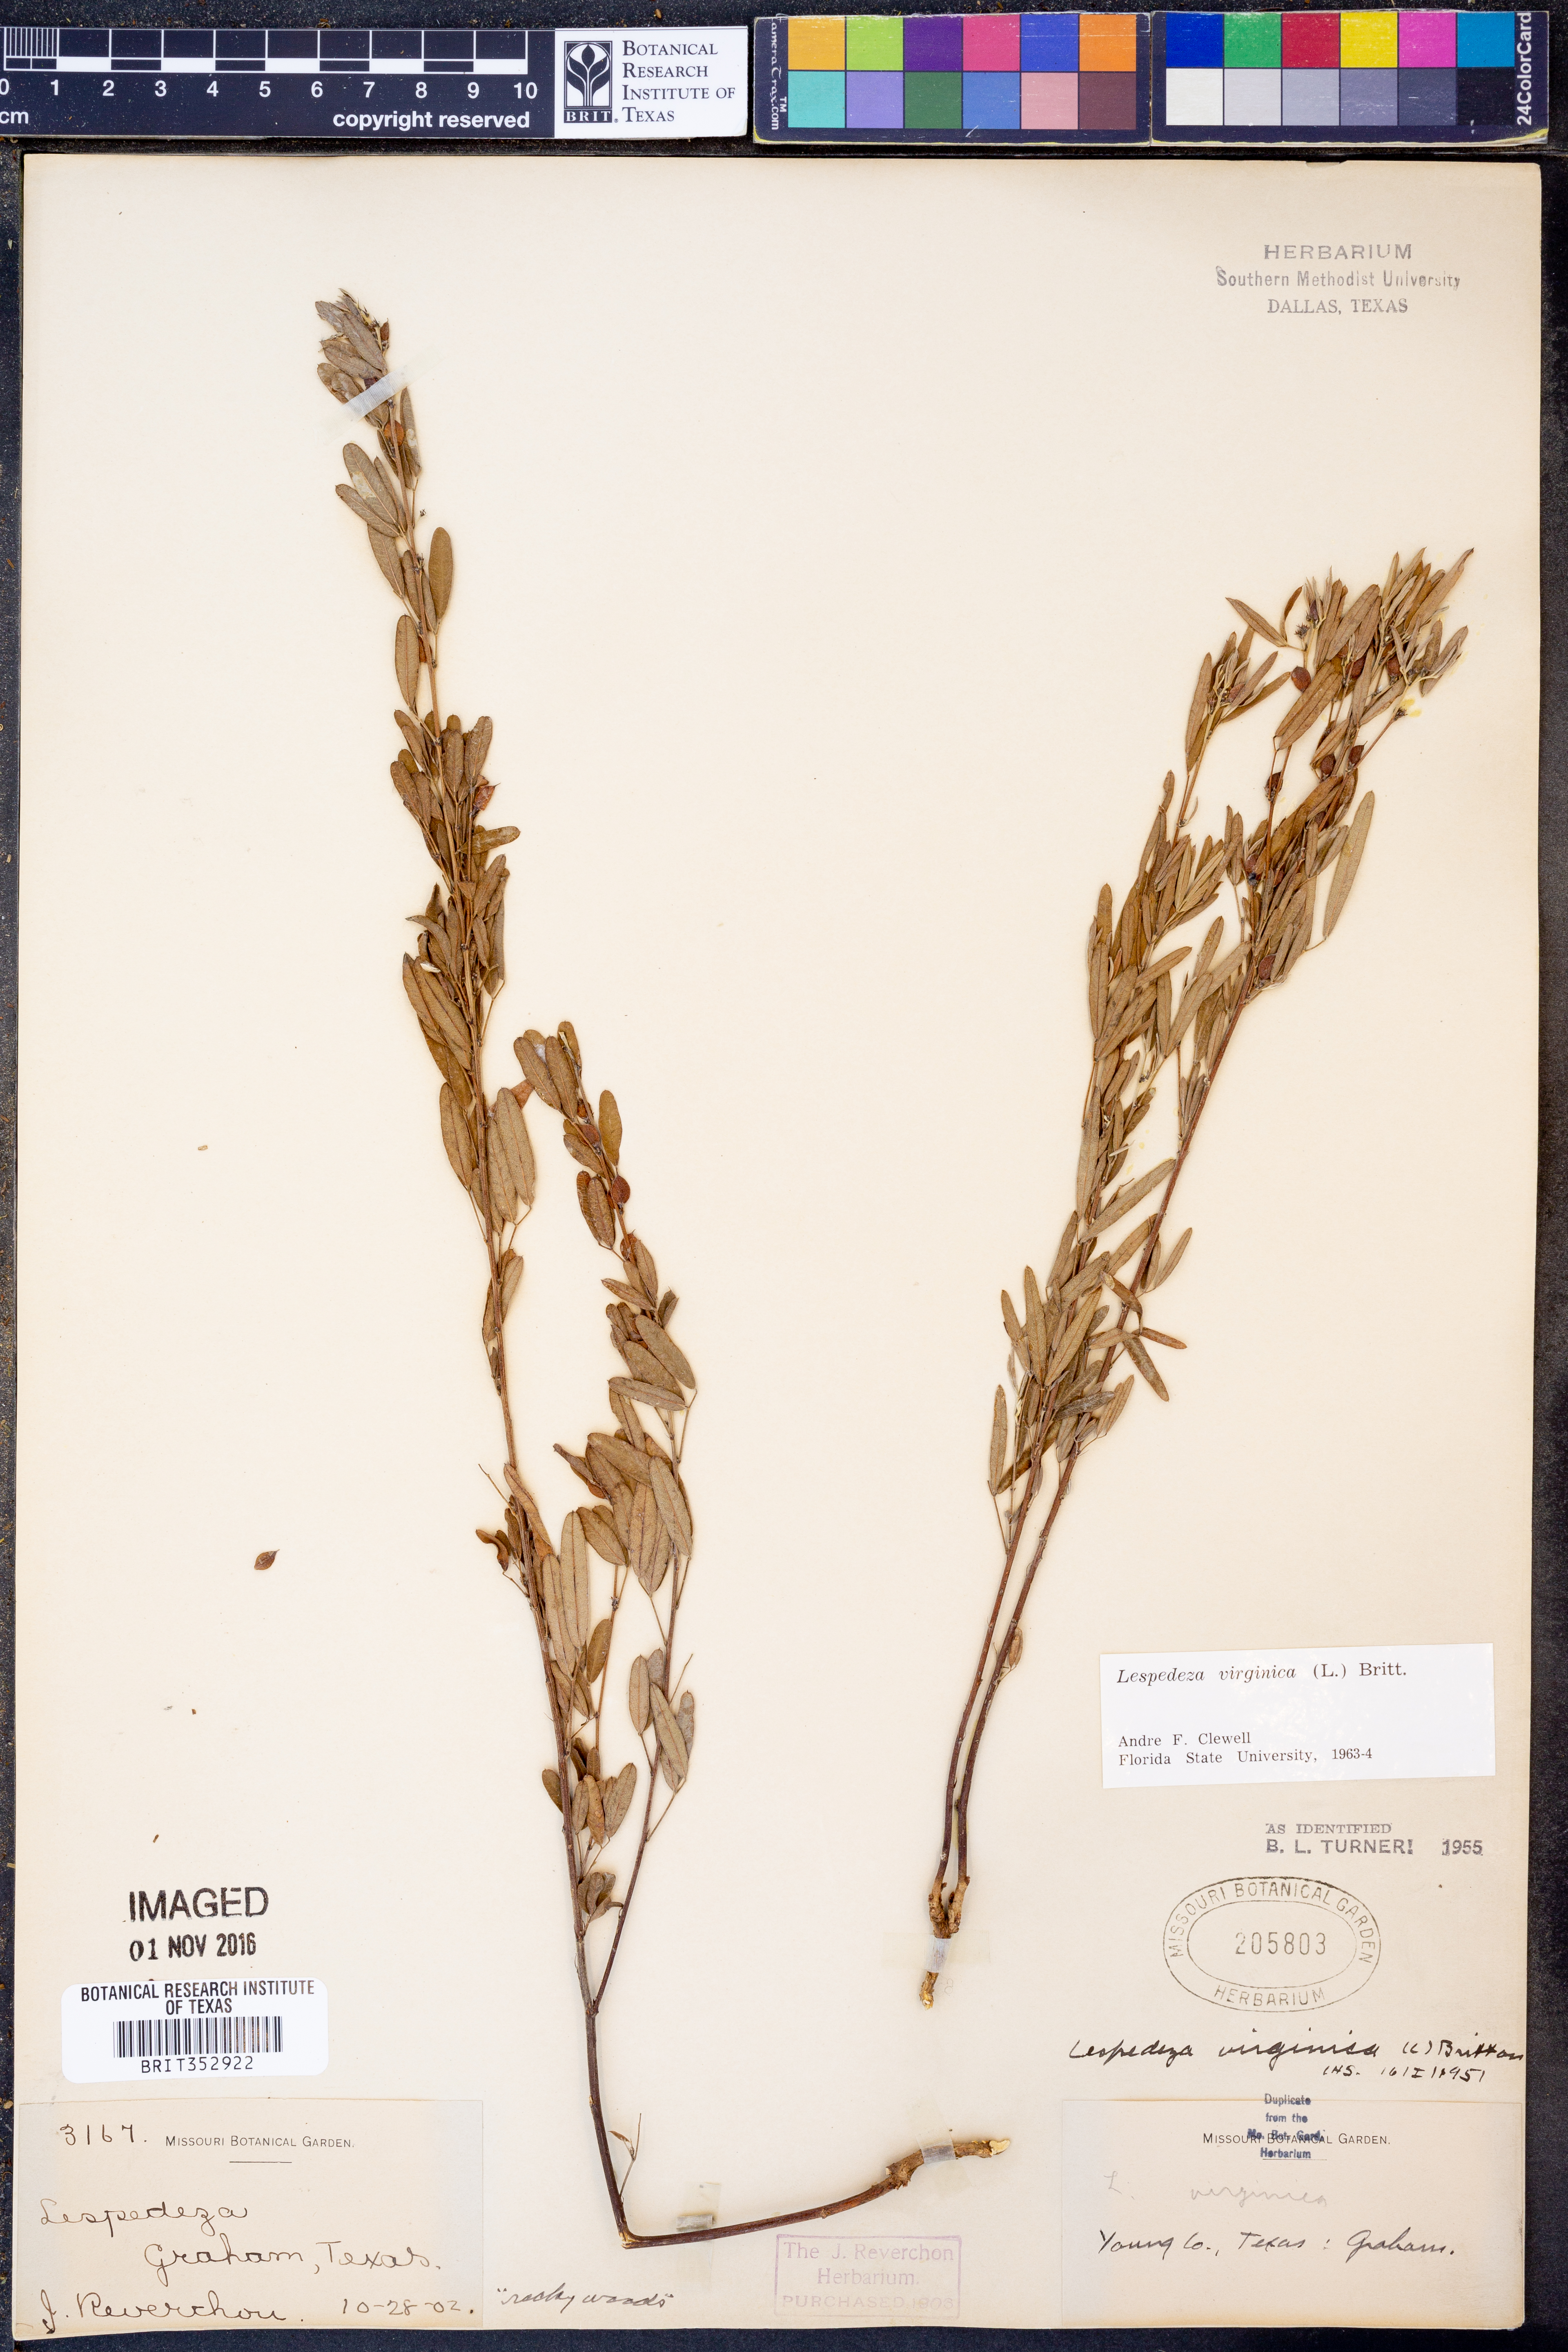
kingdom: Plantae
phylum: Tracheophyta
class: Magnoliopsida
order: Fabales
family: Fabaceae
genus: Lespedeza
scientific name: Lespedeza virginica
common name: Slender bush-clover
